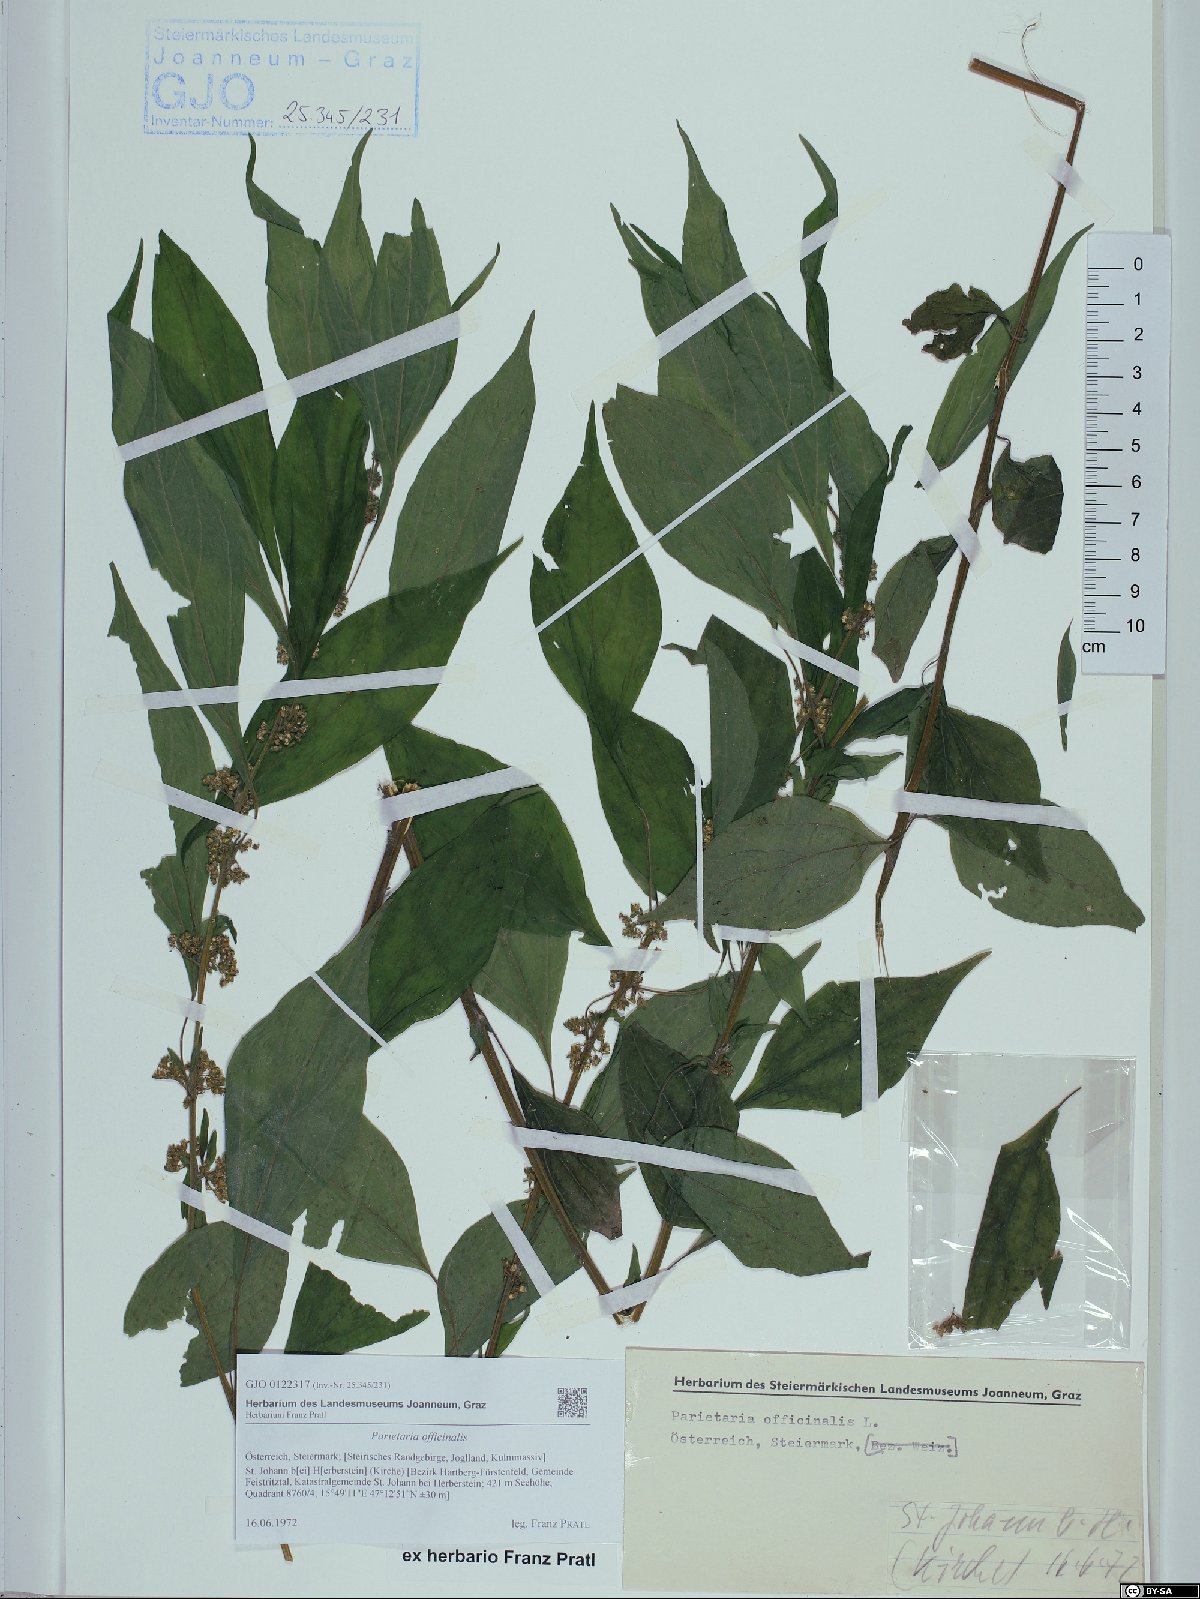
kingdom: Plantae
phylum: Tracheophyta
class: Magnoliopsida
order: Rosales
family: Urticaceae
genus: Parietaria
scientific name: Parietaria officinalis
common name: Eastern pellitory-of-the-wall
